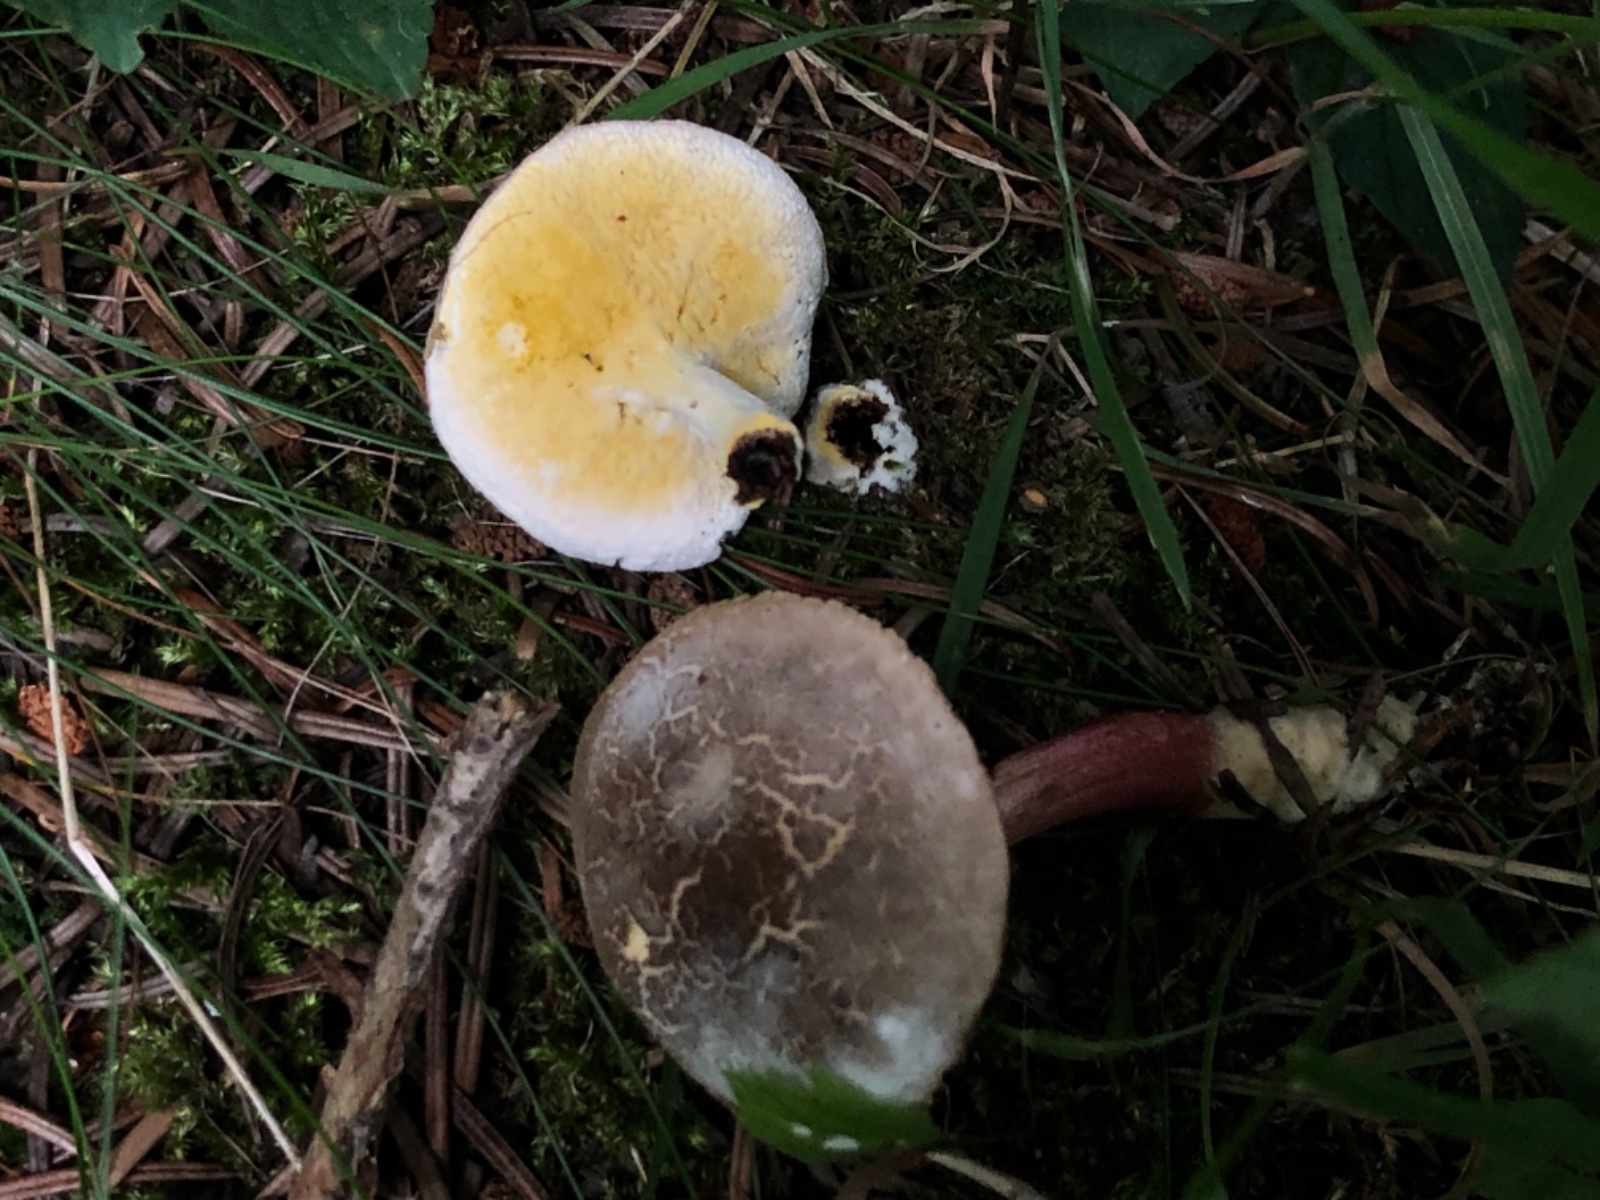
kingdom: Fungi
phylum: Ascomycota
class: Sordariomycetes
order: Hypocreales
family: Hypocreaceae
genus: Hypomyces
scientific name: Hypomyces microspermus
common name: dværgrørhat-snylteskorpe
